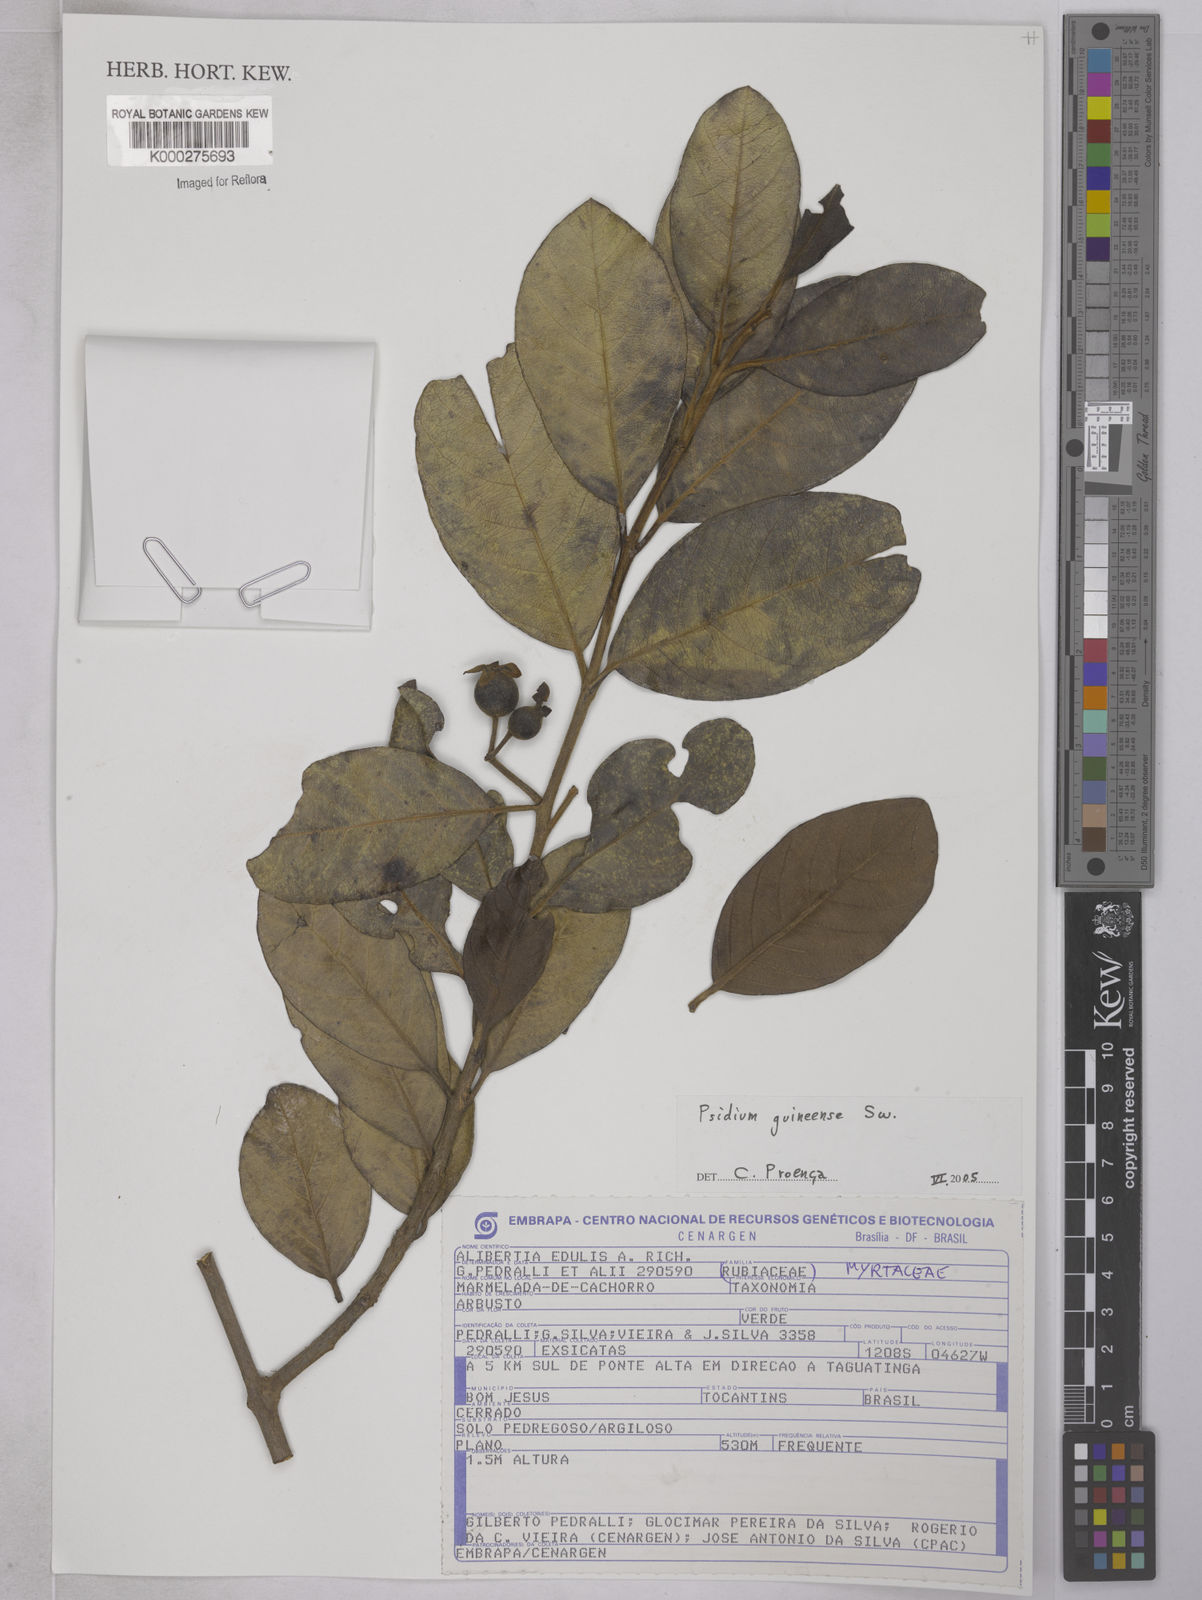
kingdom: Plantae
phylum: Tracheophyta
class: Magnoliopsida
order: Myrtales
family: Myrtaceae
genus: Psidium
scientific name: Psidium guineense
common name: Brazilian guava
